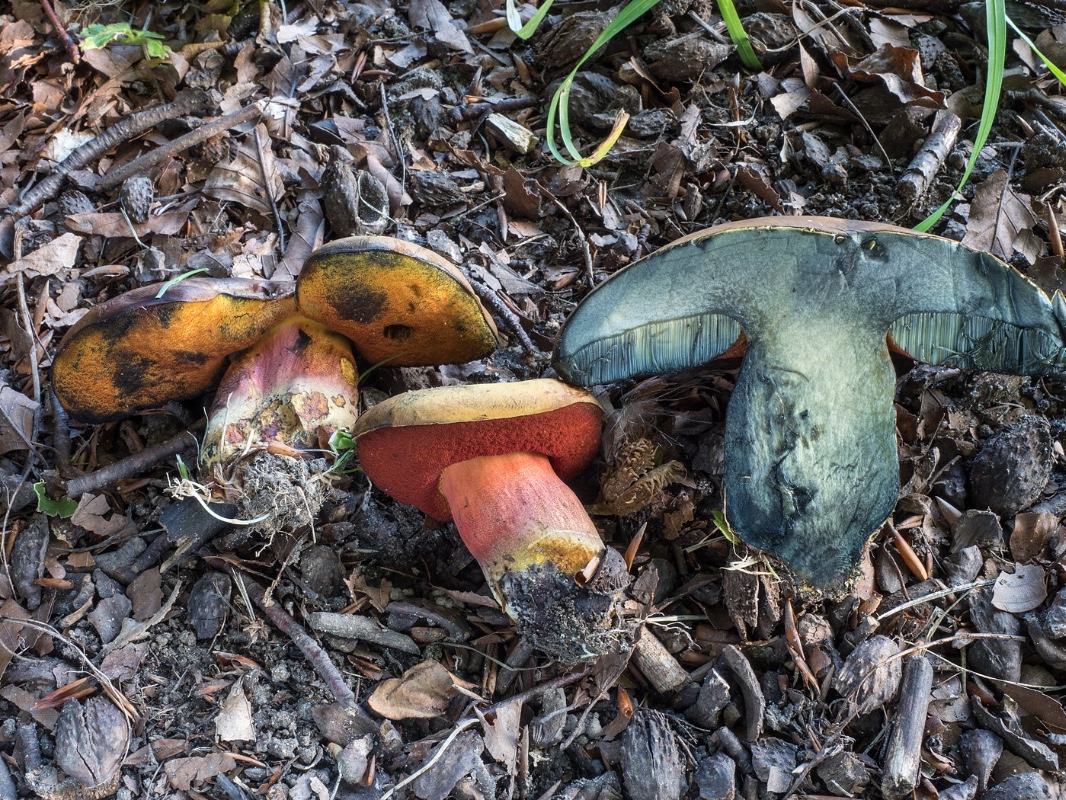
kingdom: Fungi
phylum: Basidiomycota
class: Agaricomycetes
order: Boletales
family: Boletaceae
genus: Neoboletus
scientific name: Neoboletus xanthopus
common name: finprikket indigorørhat
